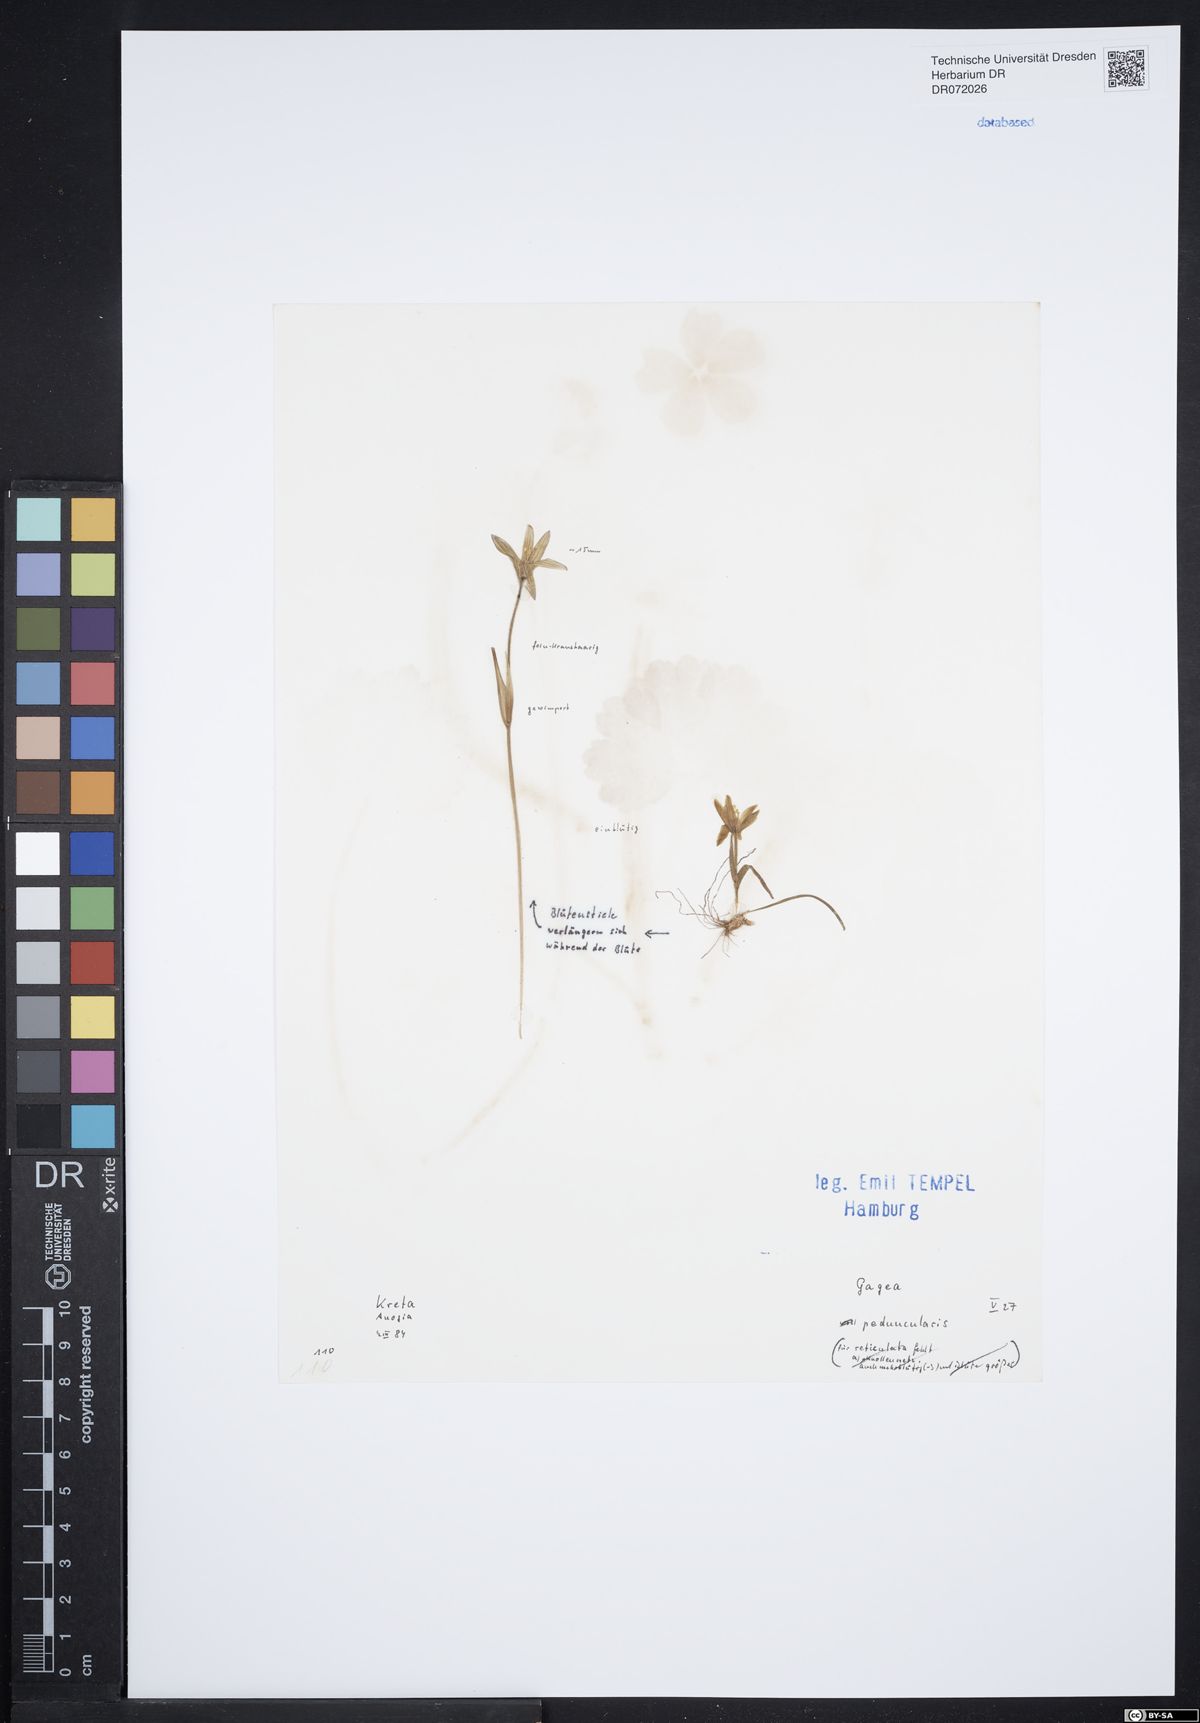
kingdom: Plantae
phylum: Tracheophyta
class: Liliopsida
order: Liliales
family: Liliaceae
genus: Gagea
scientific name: Gagea peduncularis
